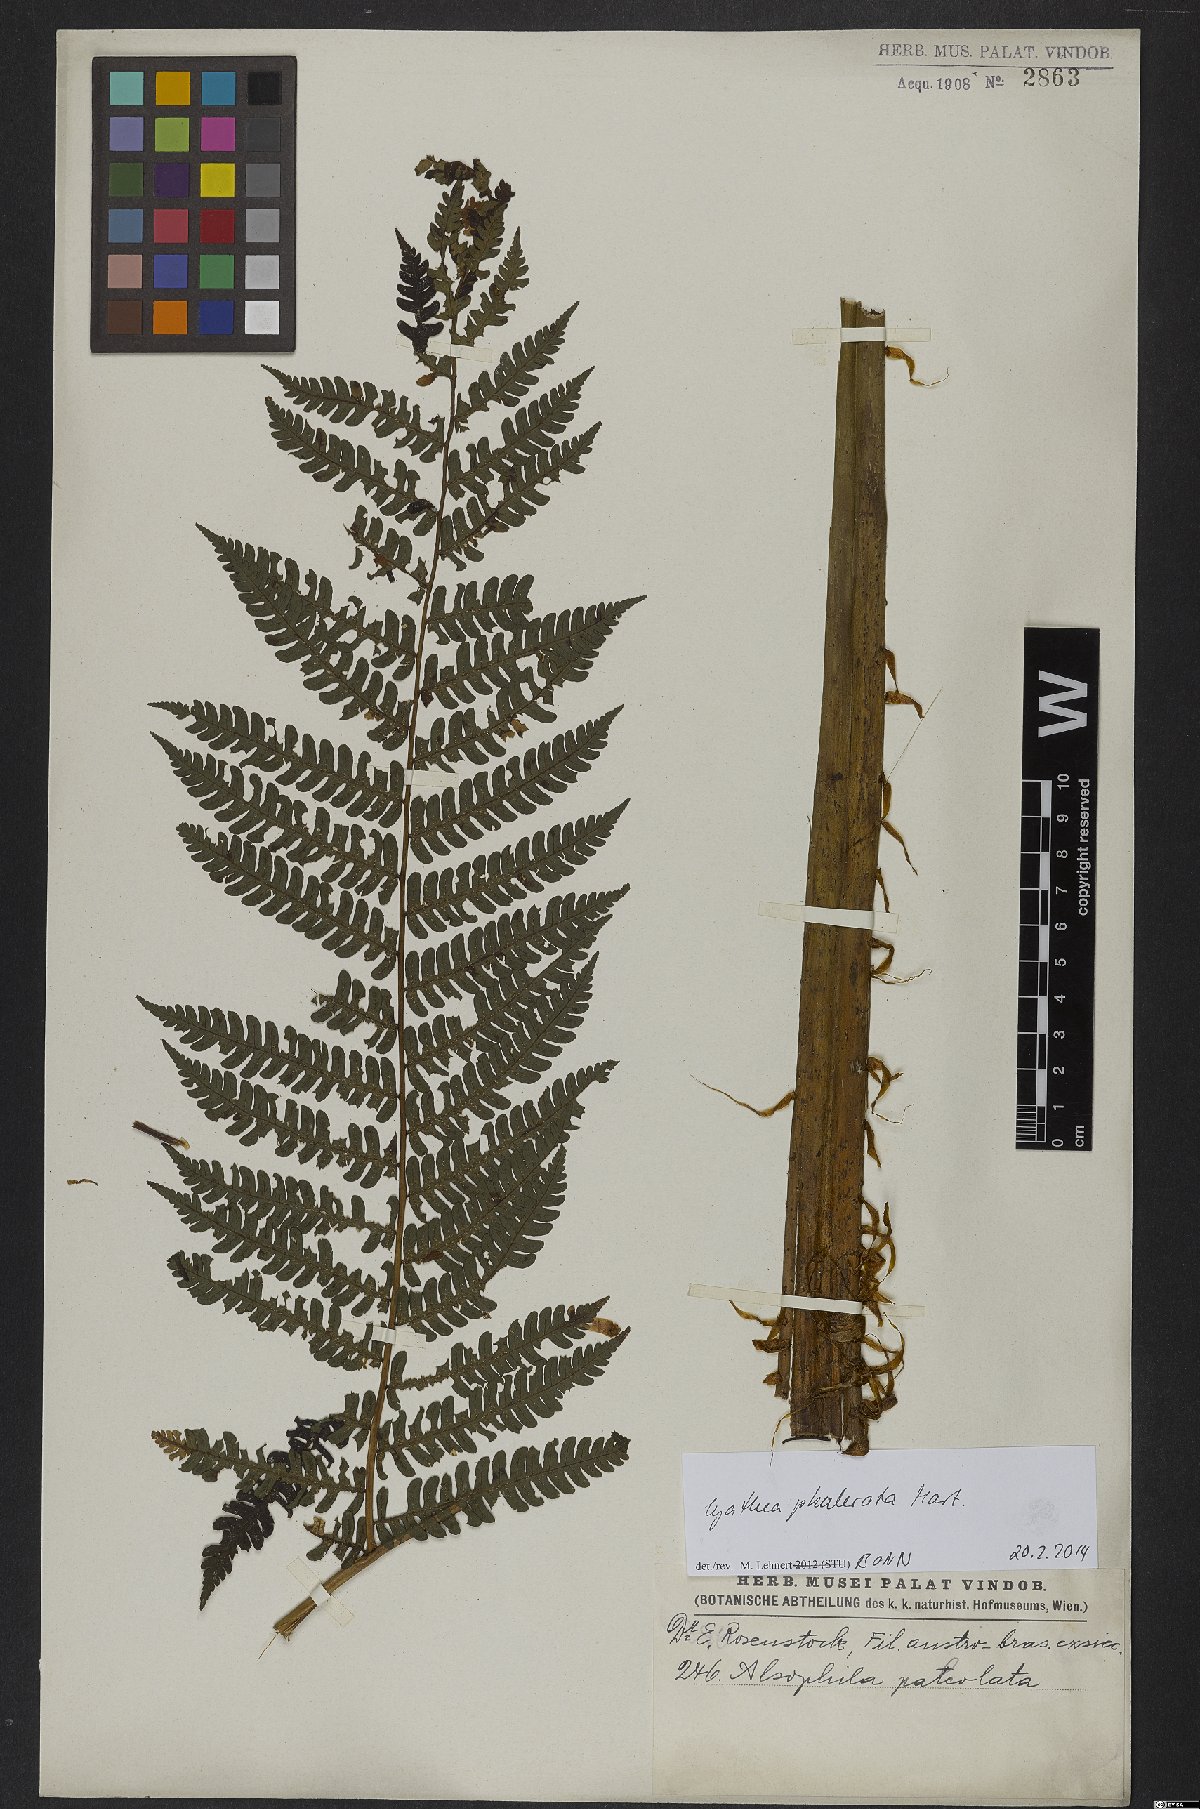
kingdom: Plantae
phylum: Tracheophyta
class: Polypodiopsida
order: Cyatheales
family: Cyatheaceae
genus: Cyathea
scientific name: Cyathea phalerata
